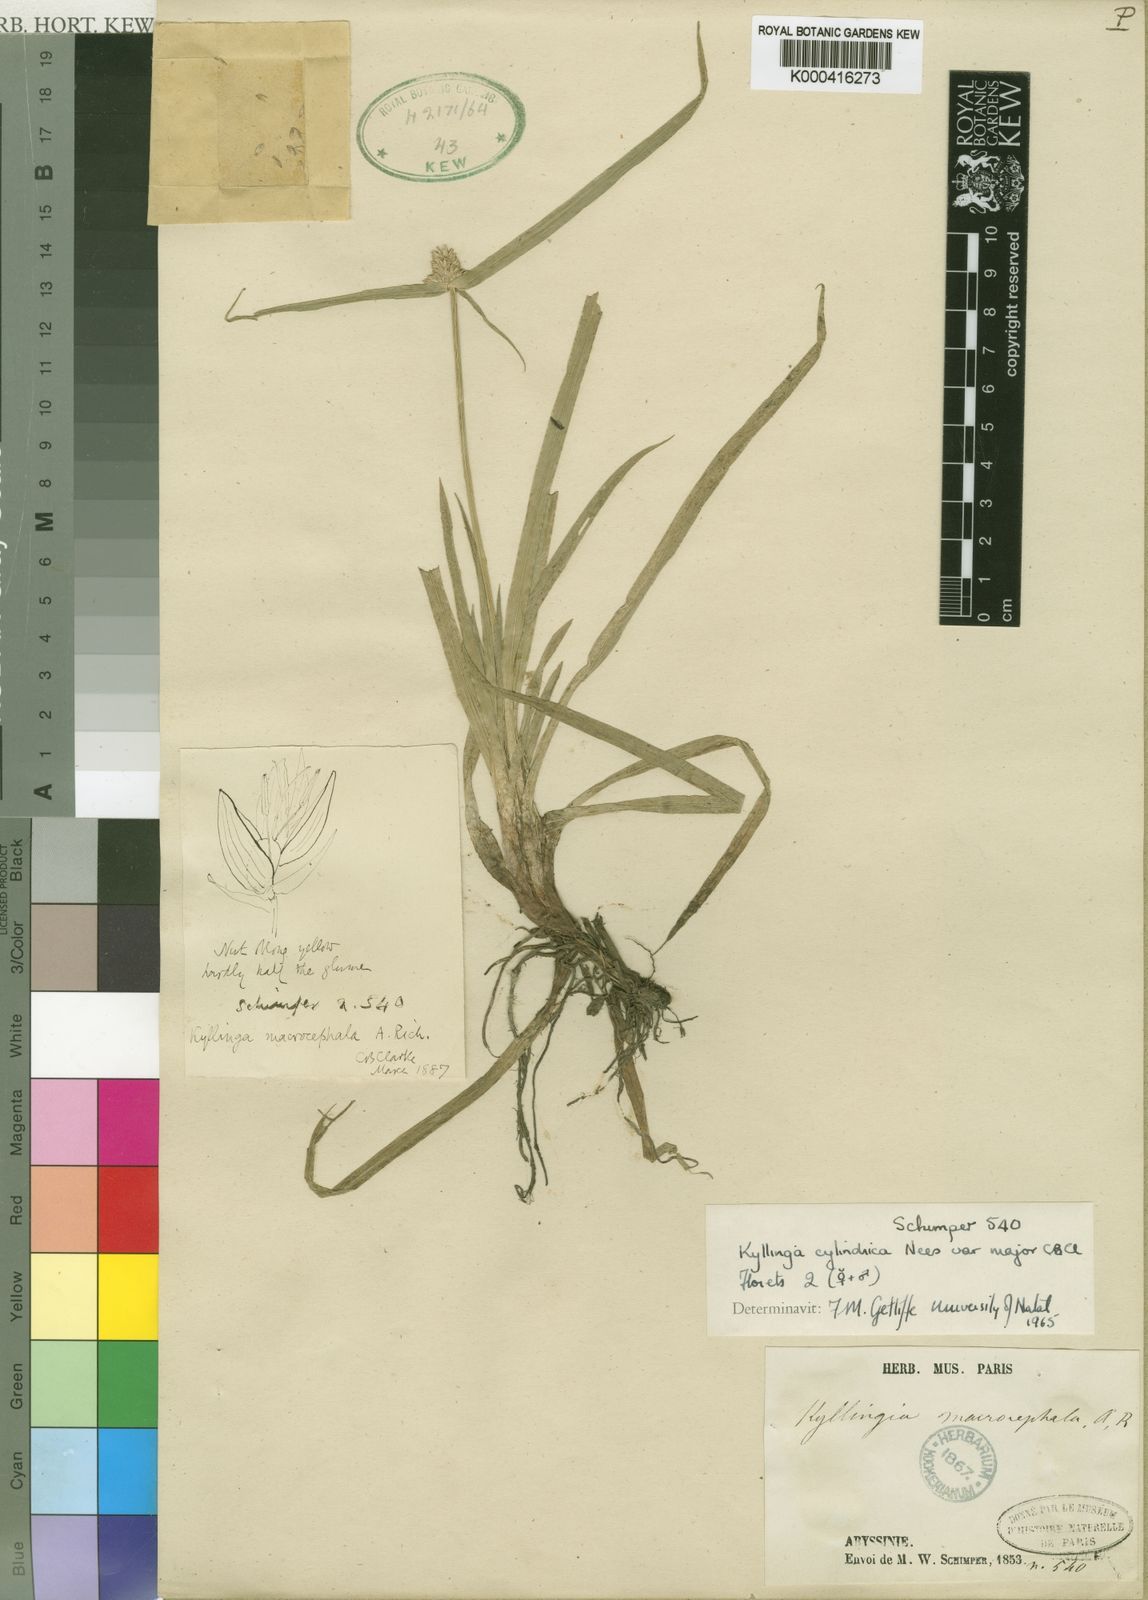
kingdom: Plantae
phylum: Tracheophyta
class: Liliopsida
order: Poales
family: Cyperaceae
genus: Cyperus
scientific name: Cyperus richardii
